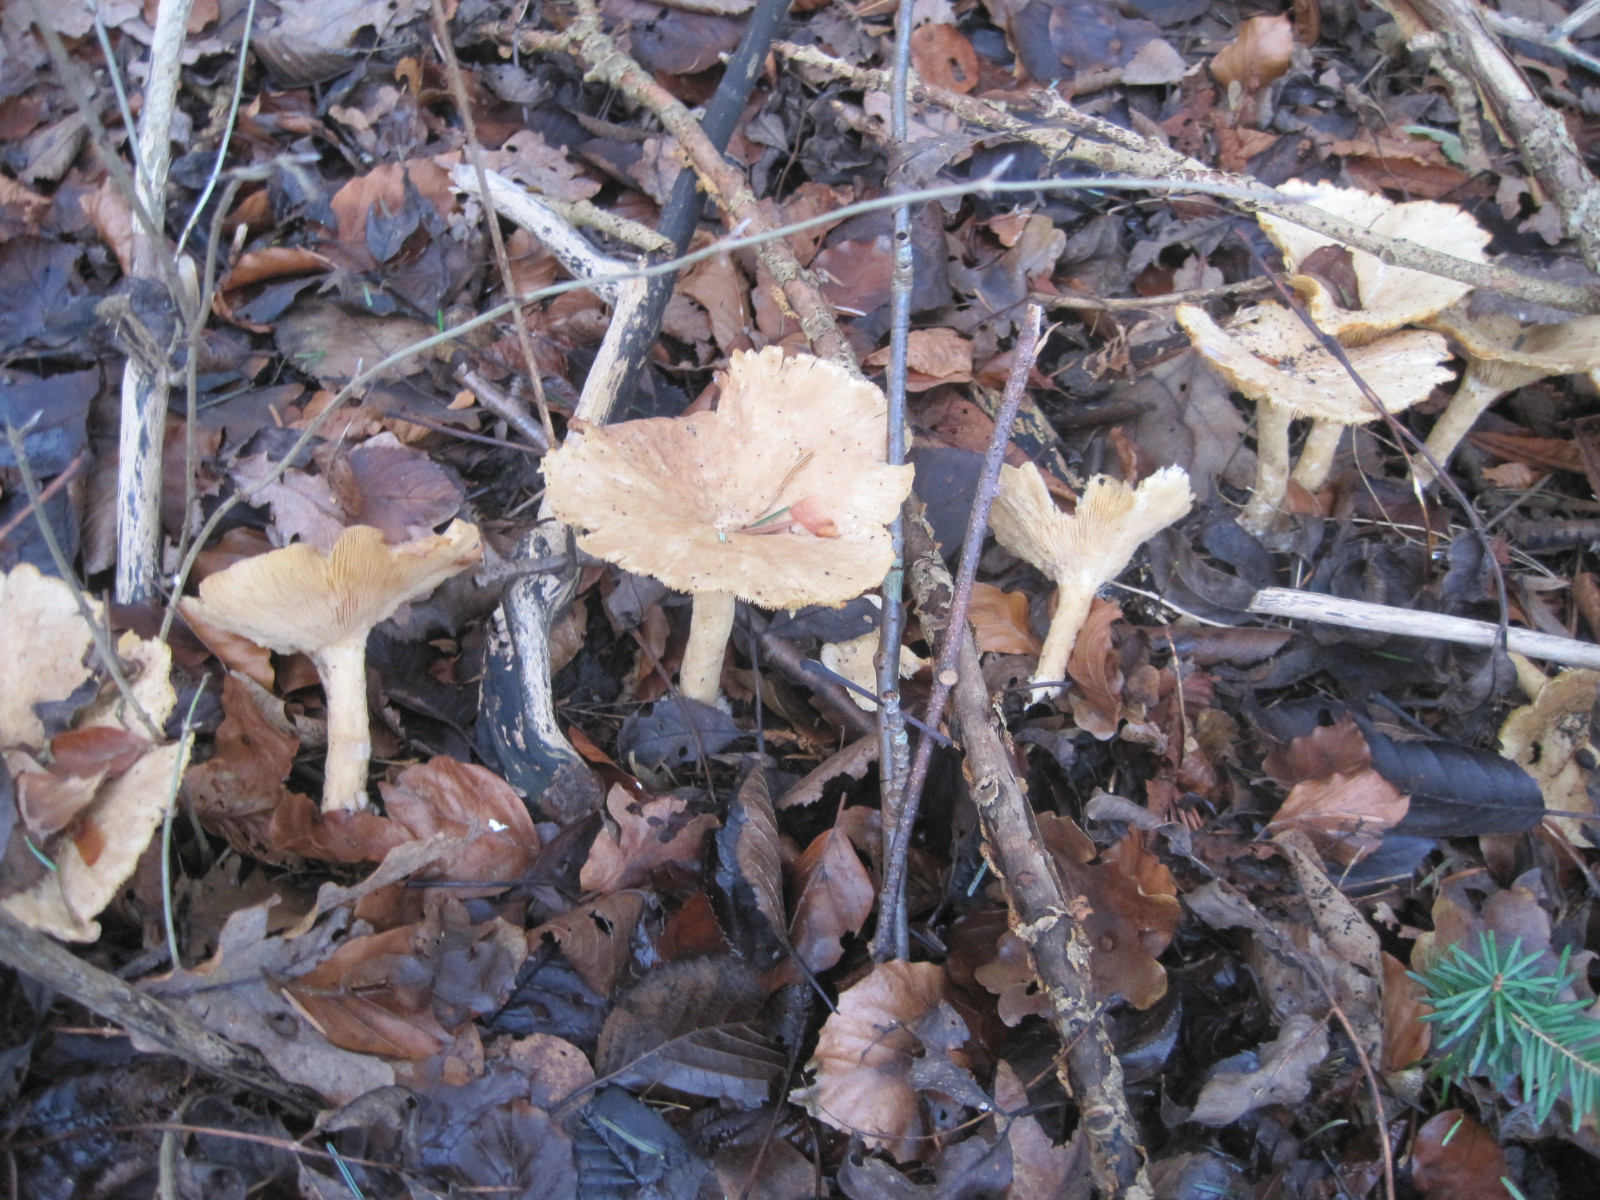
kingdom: Fungi
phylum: Basidiomycota
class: Agaricomycetes
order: Agaricales
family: Tricholomataceae
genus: Infundibulicybe
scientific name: Infundibulicybe geotropa
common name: stor tragthat
